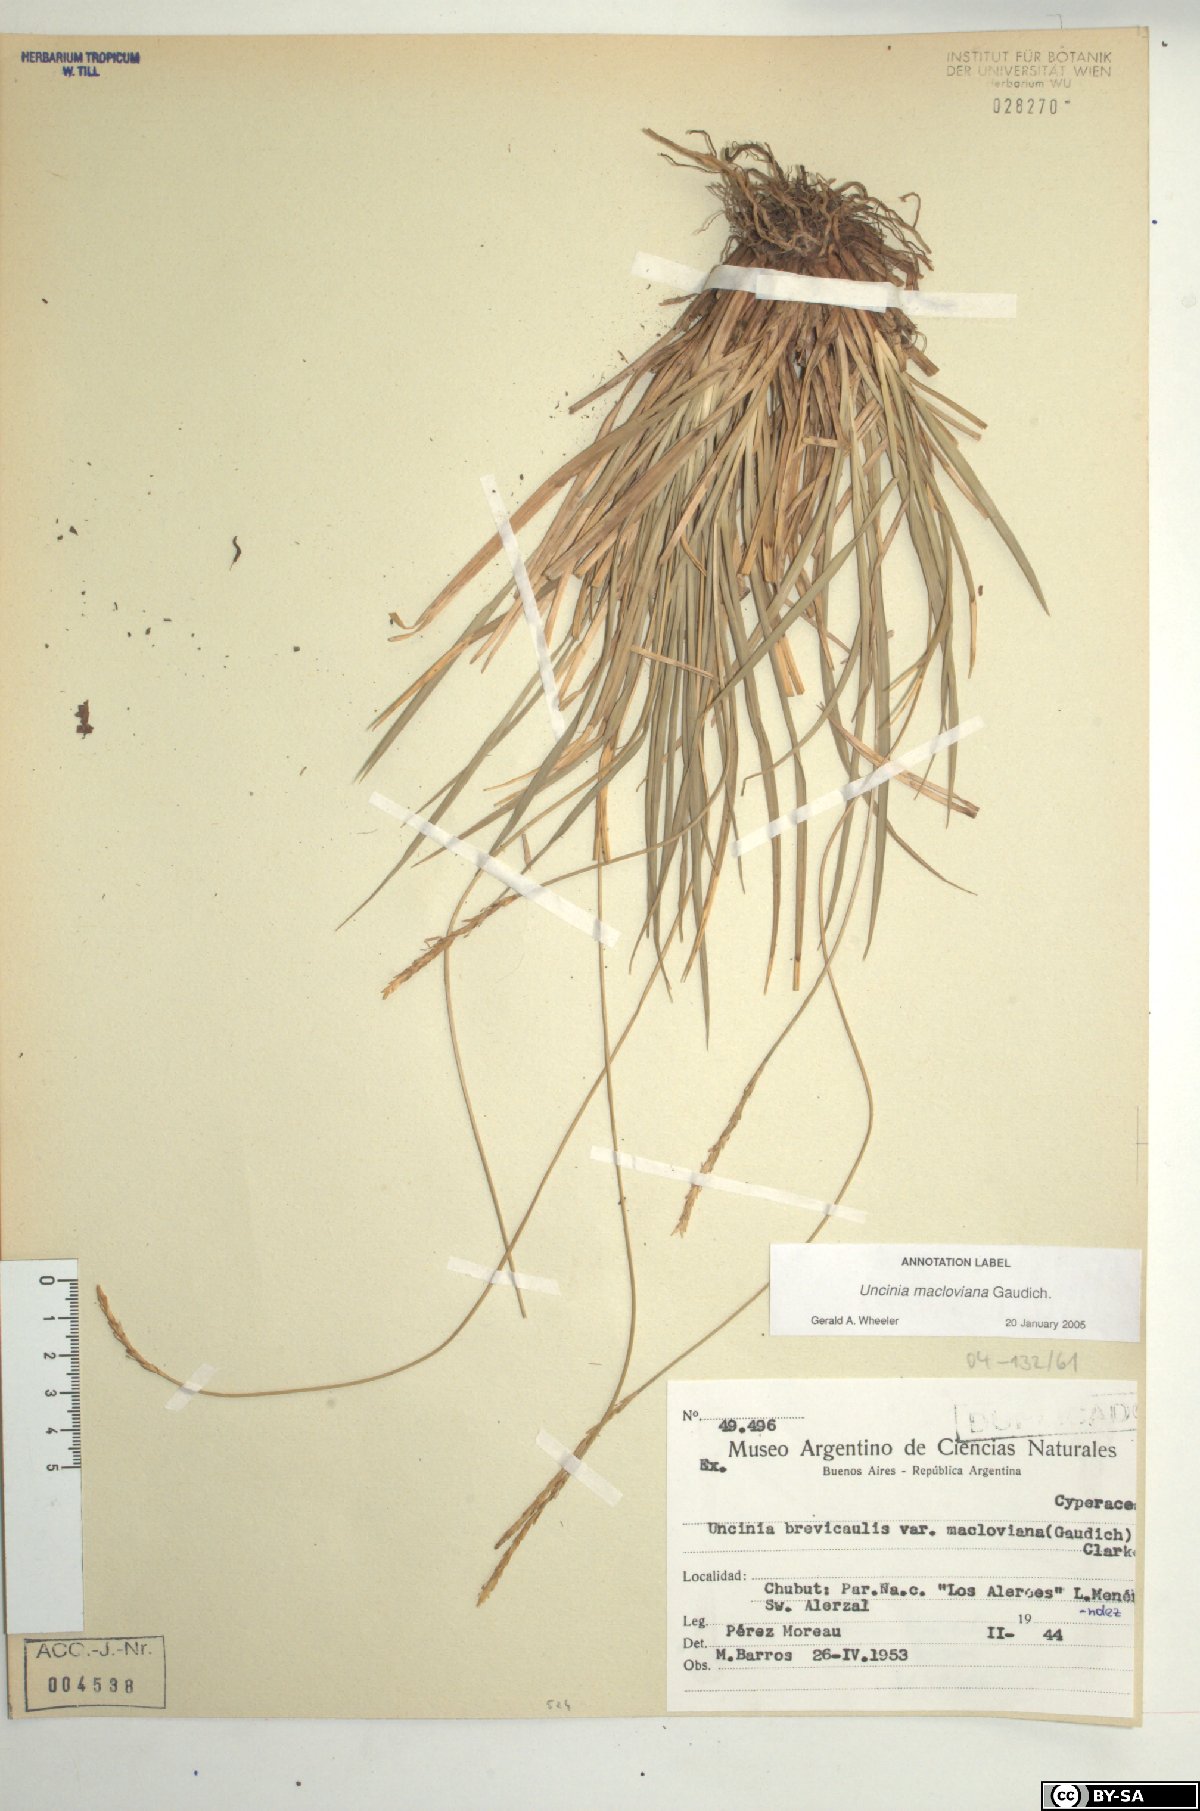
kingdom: Plantae
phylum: Tracheophyta
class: Liliopsida
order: Poales
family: Cyperaceae
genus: Carex
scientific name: Carex delacosta
